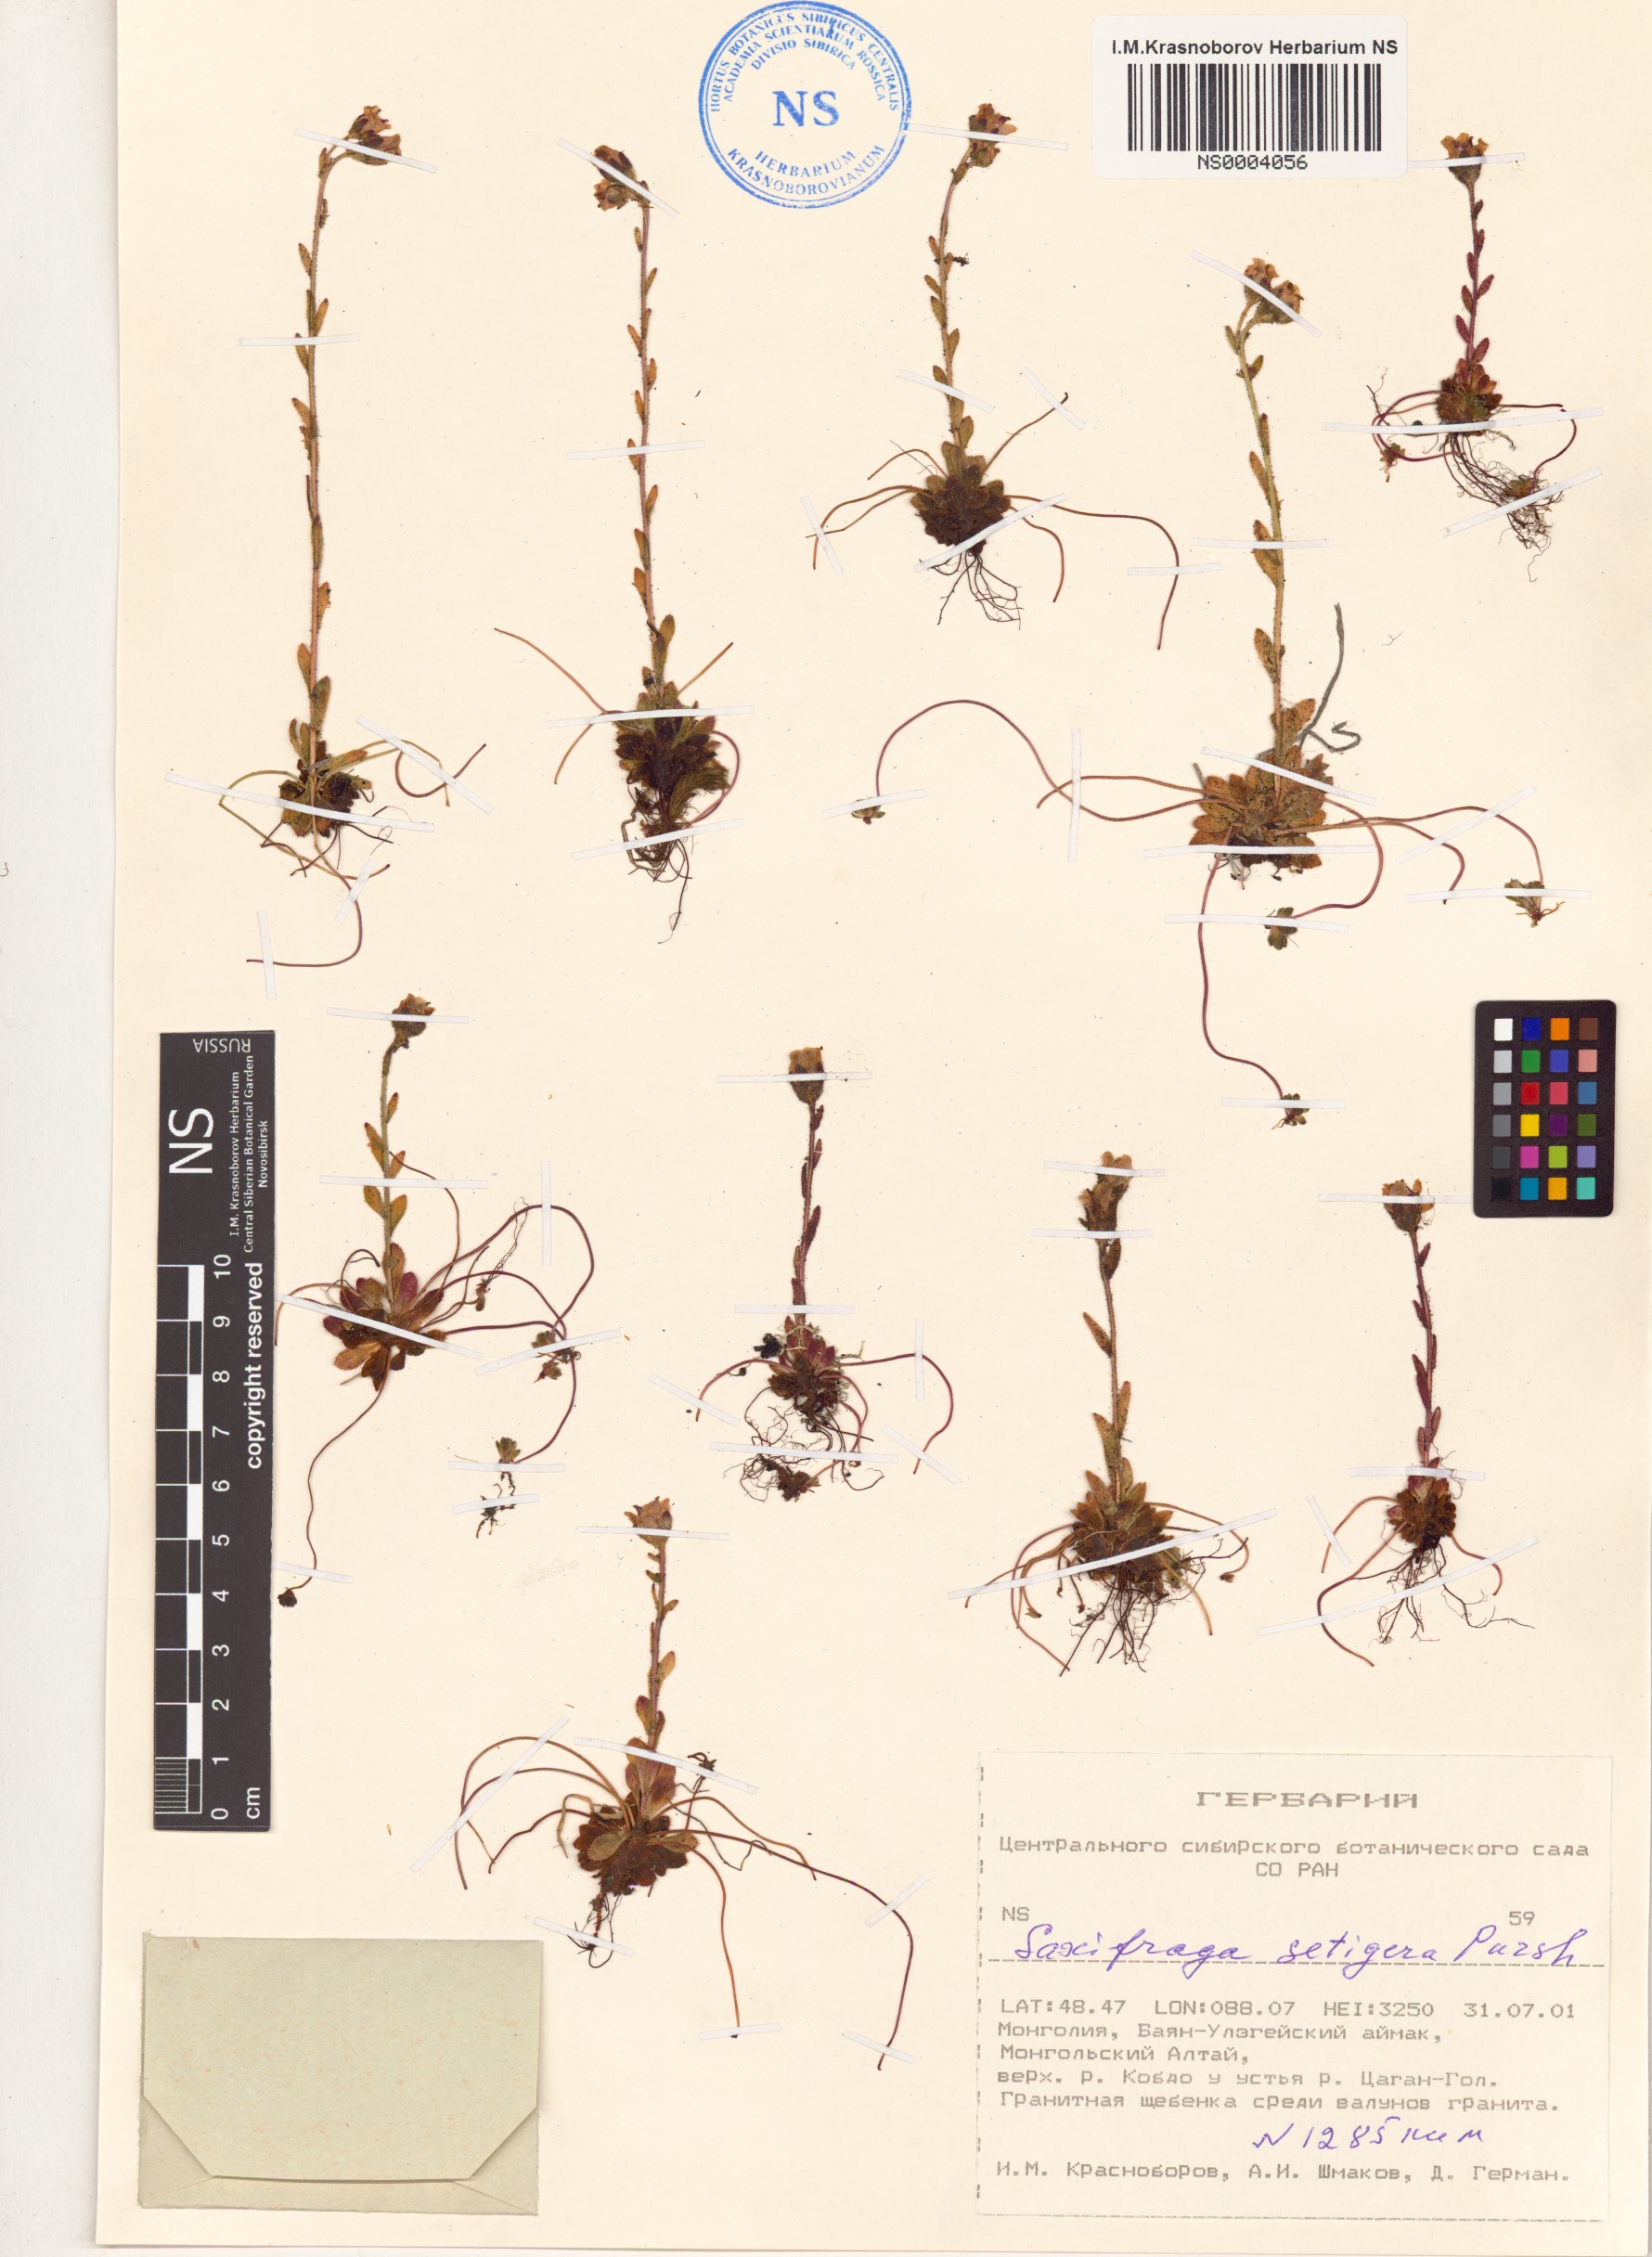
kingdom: Plantae
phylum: Tracheophyta
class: Magnoliopsida
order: Saxifragales
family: Saxifragaceae
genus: Saxifraga
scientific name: Saxifraga flagellaris
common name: Spider saxifrage
